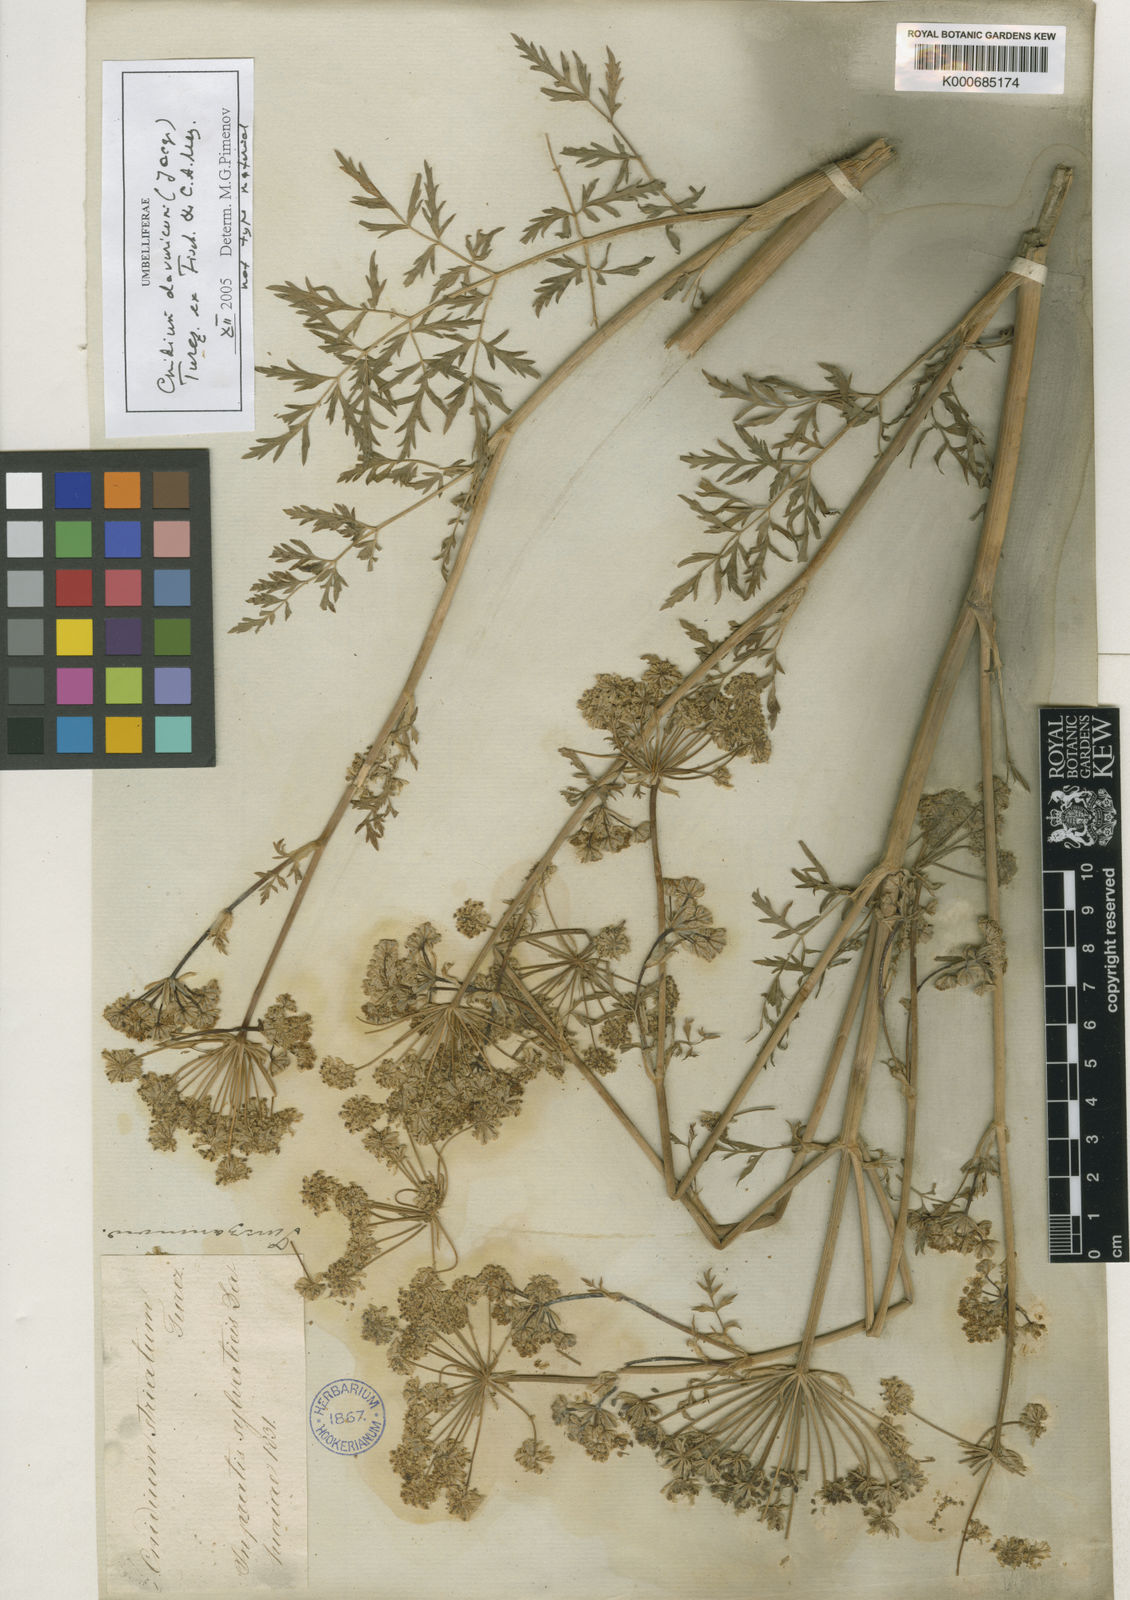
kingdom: Plantae
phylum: Tracheophyta
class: Magnoliopsida
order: Apiales
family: Apiaceae
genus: Selinum
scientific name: Selinum
